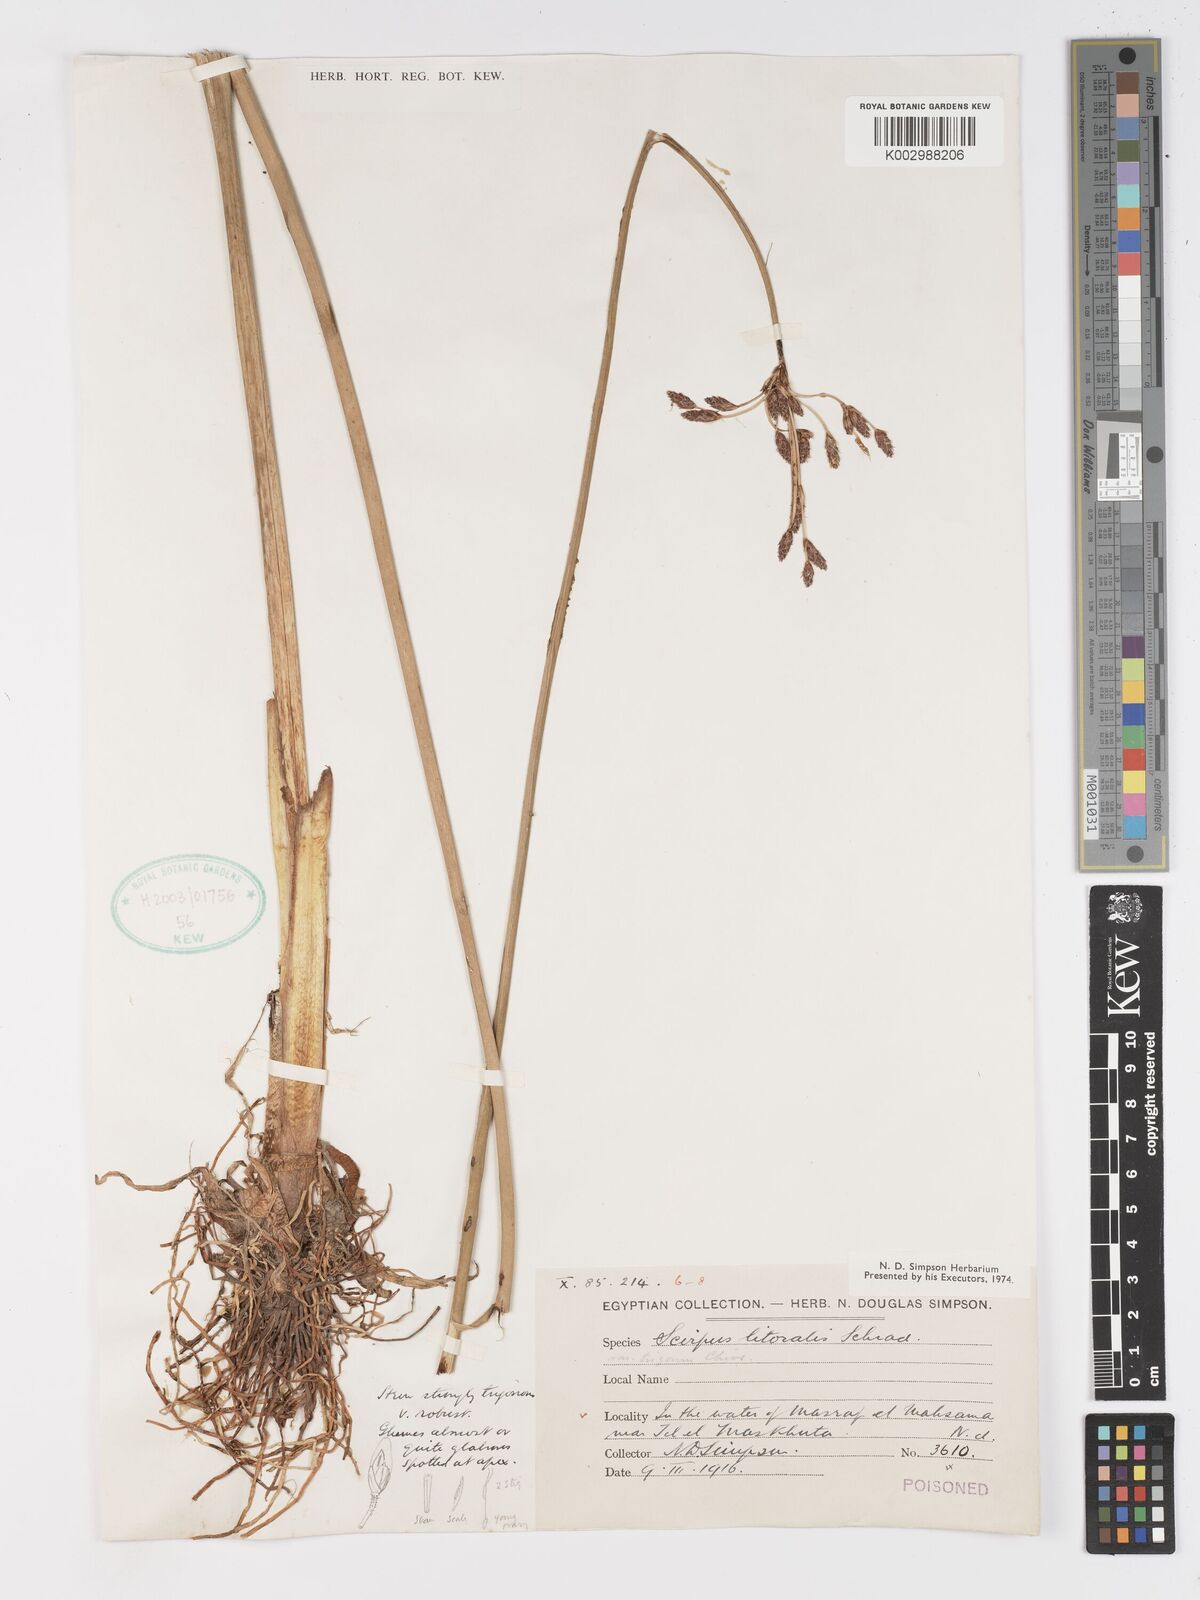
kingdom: Plantae
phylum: Tracheophyta
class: Liliopsida
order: Poales
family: Cyperaceae
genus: Schoenoplectus
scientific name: Schoenoplectus litoralis
